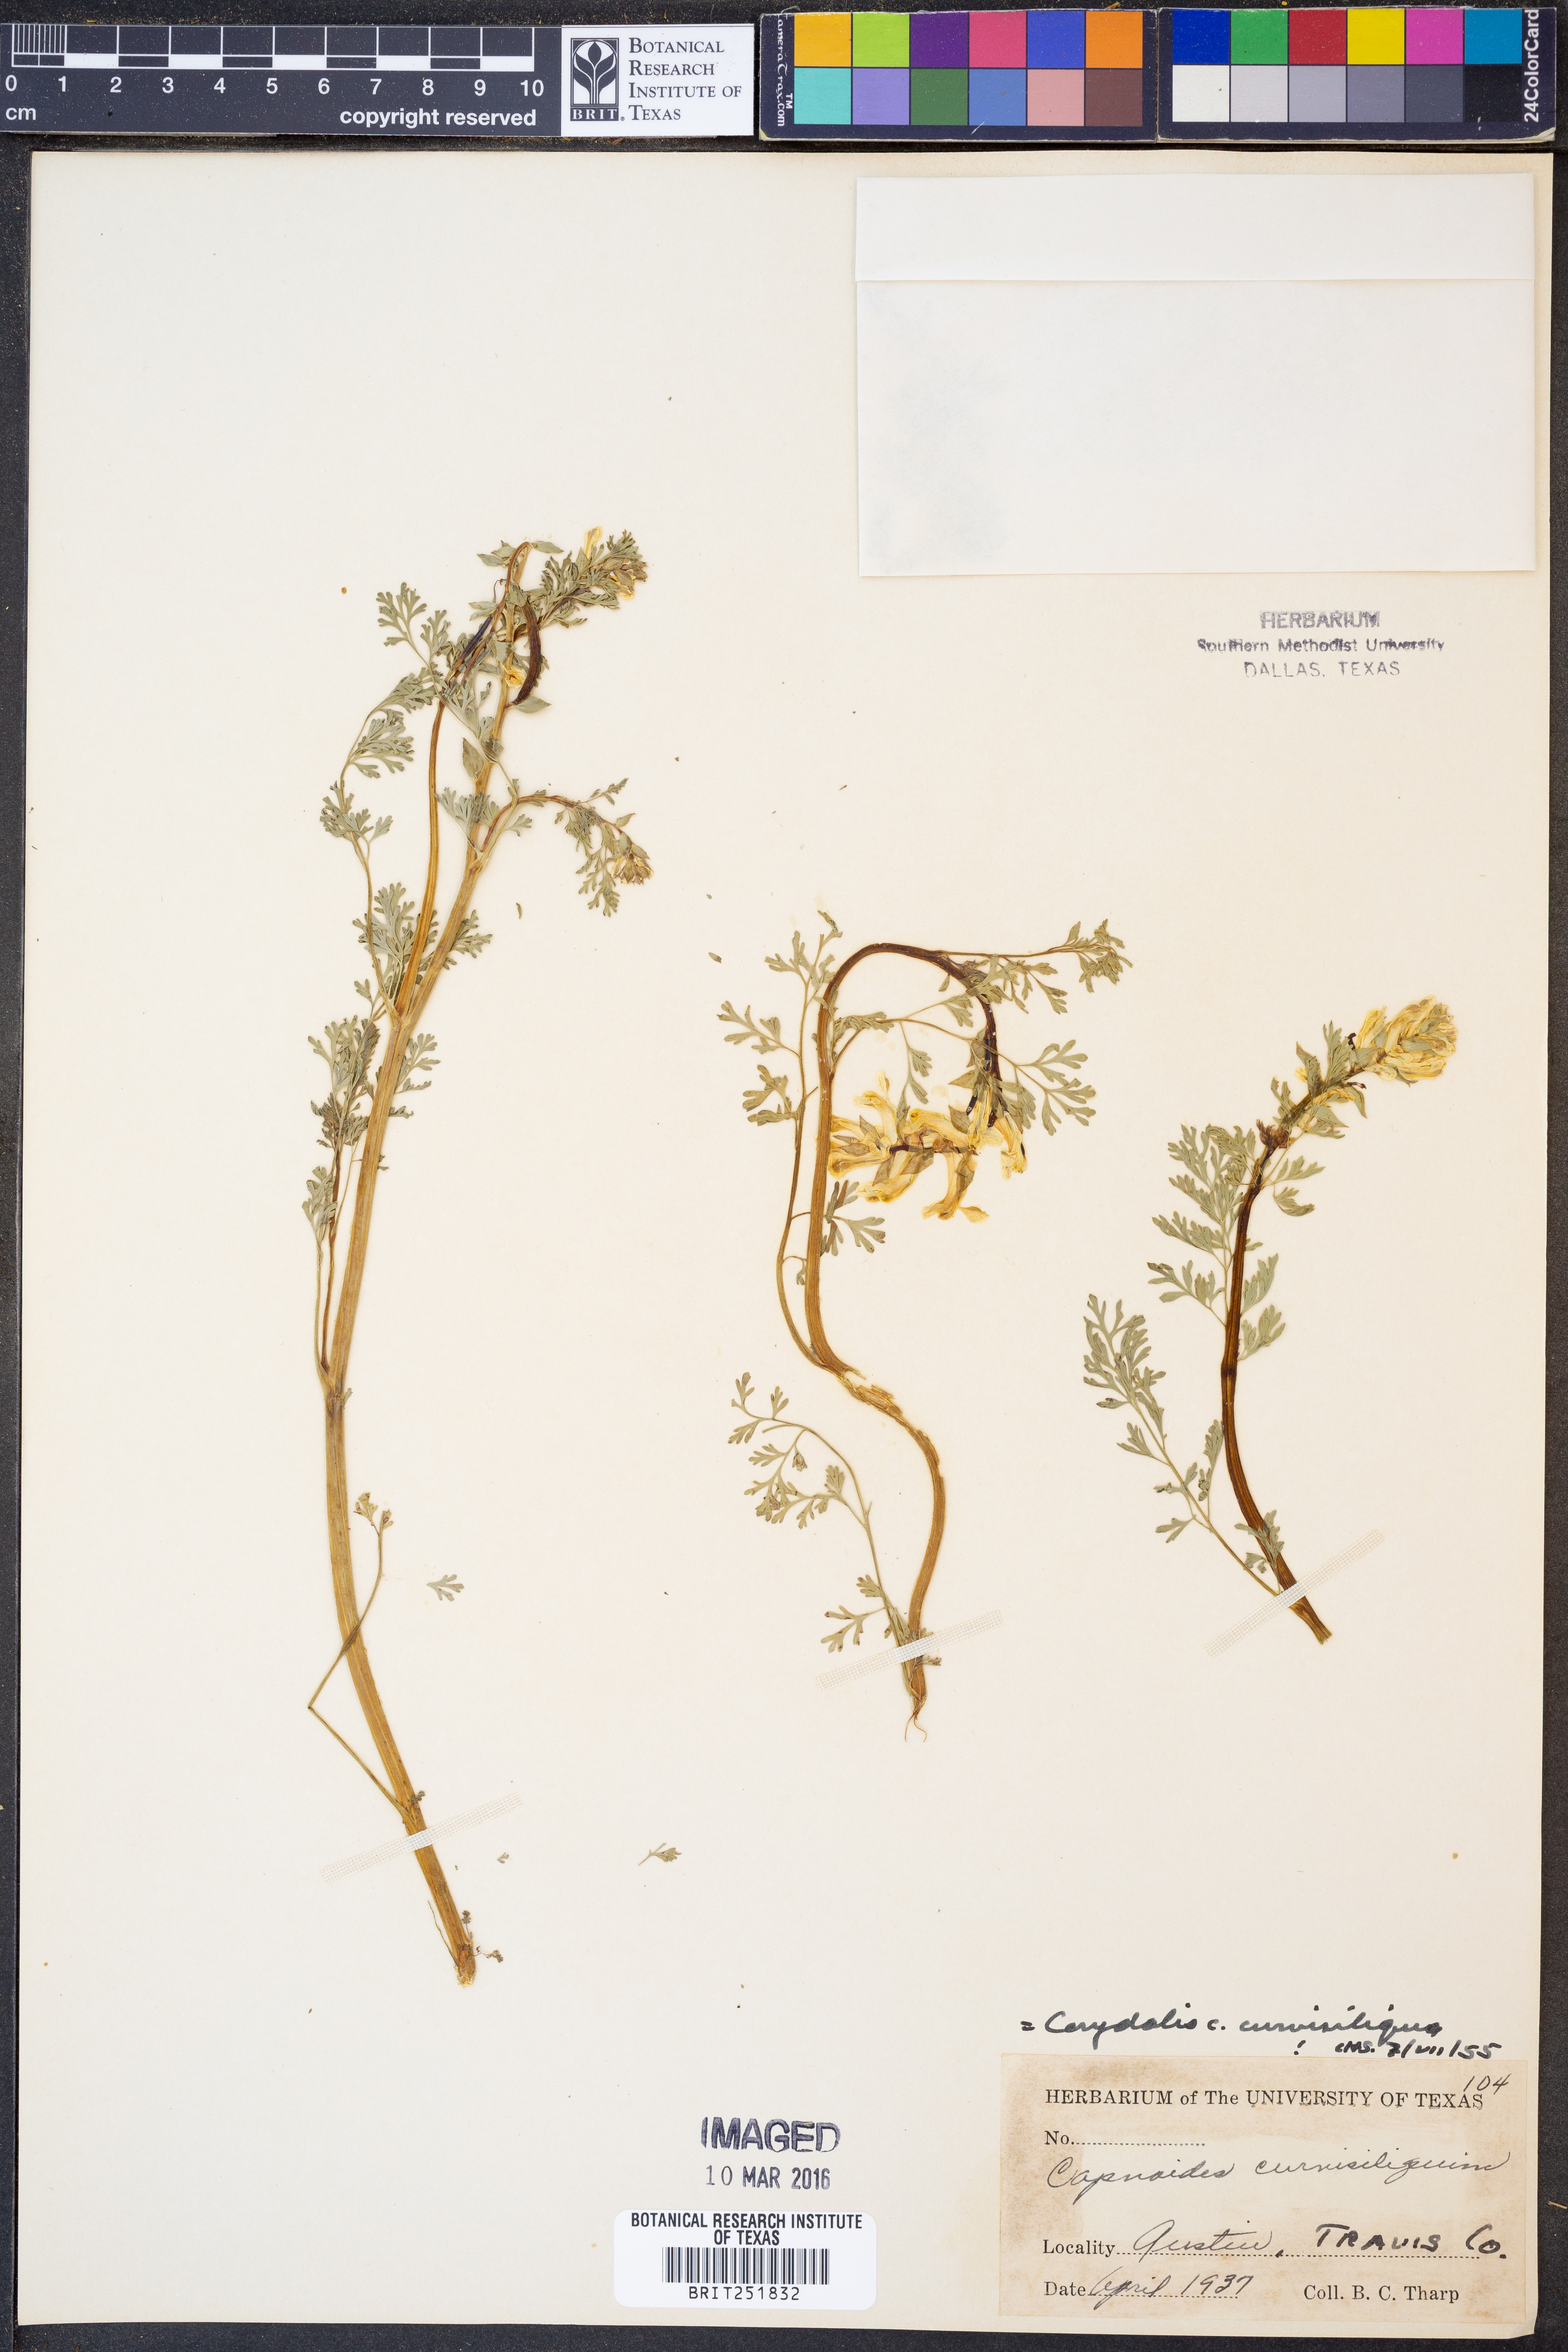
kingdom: Plantae
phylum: Tracheophyta
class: Magnoliopsida
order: Ranunculales
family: Papaveraceae
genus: Corydalis
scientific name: Corydalis curvisiliqua
